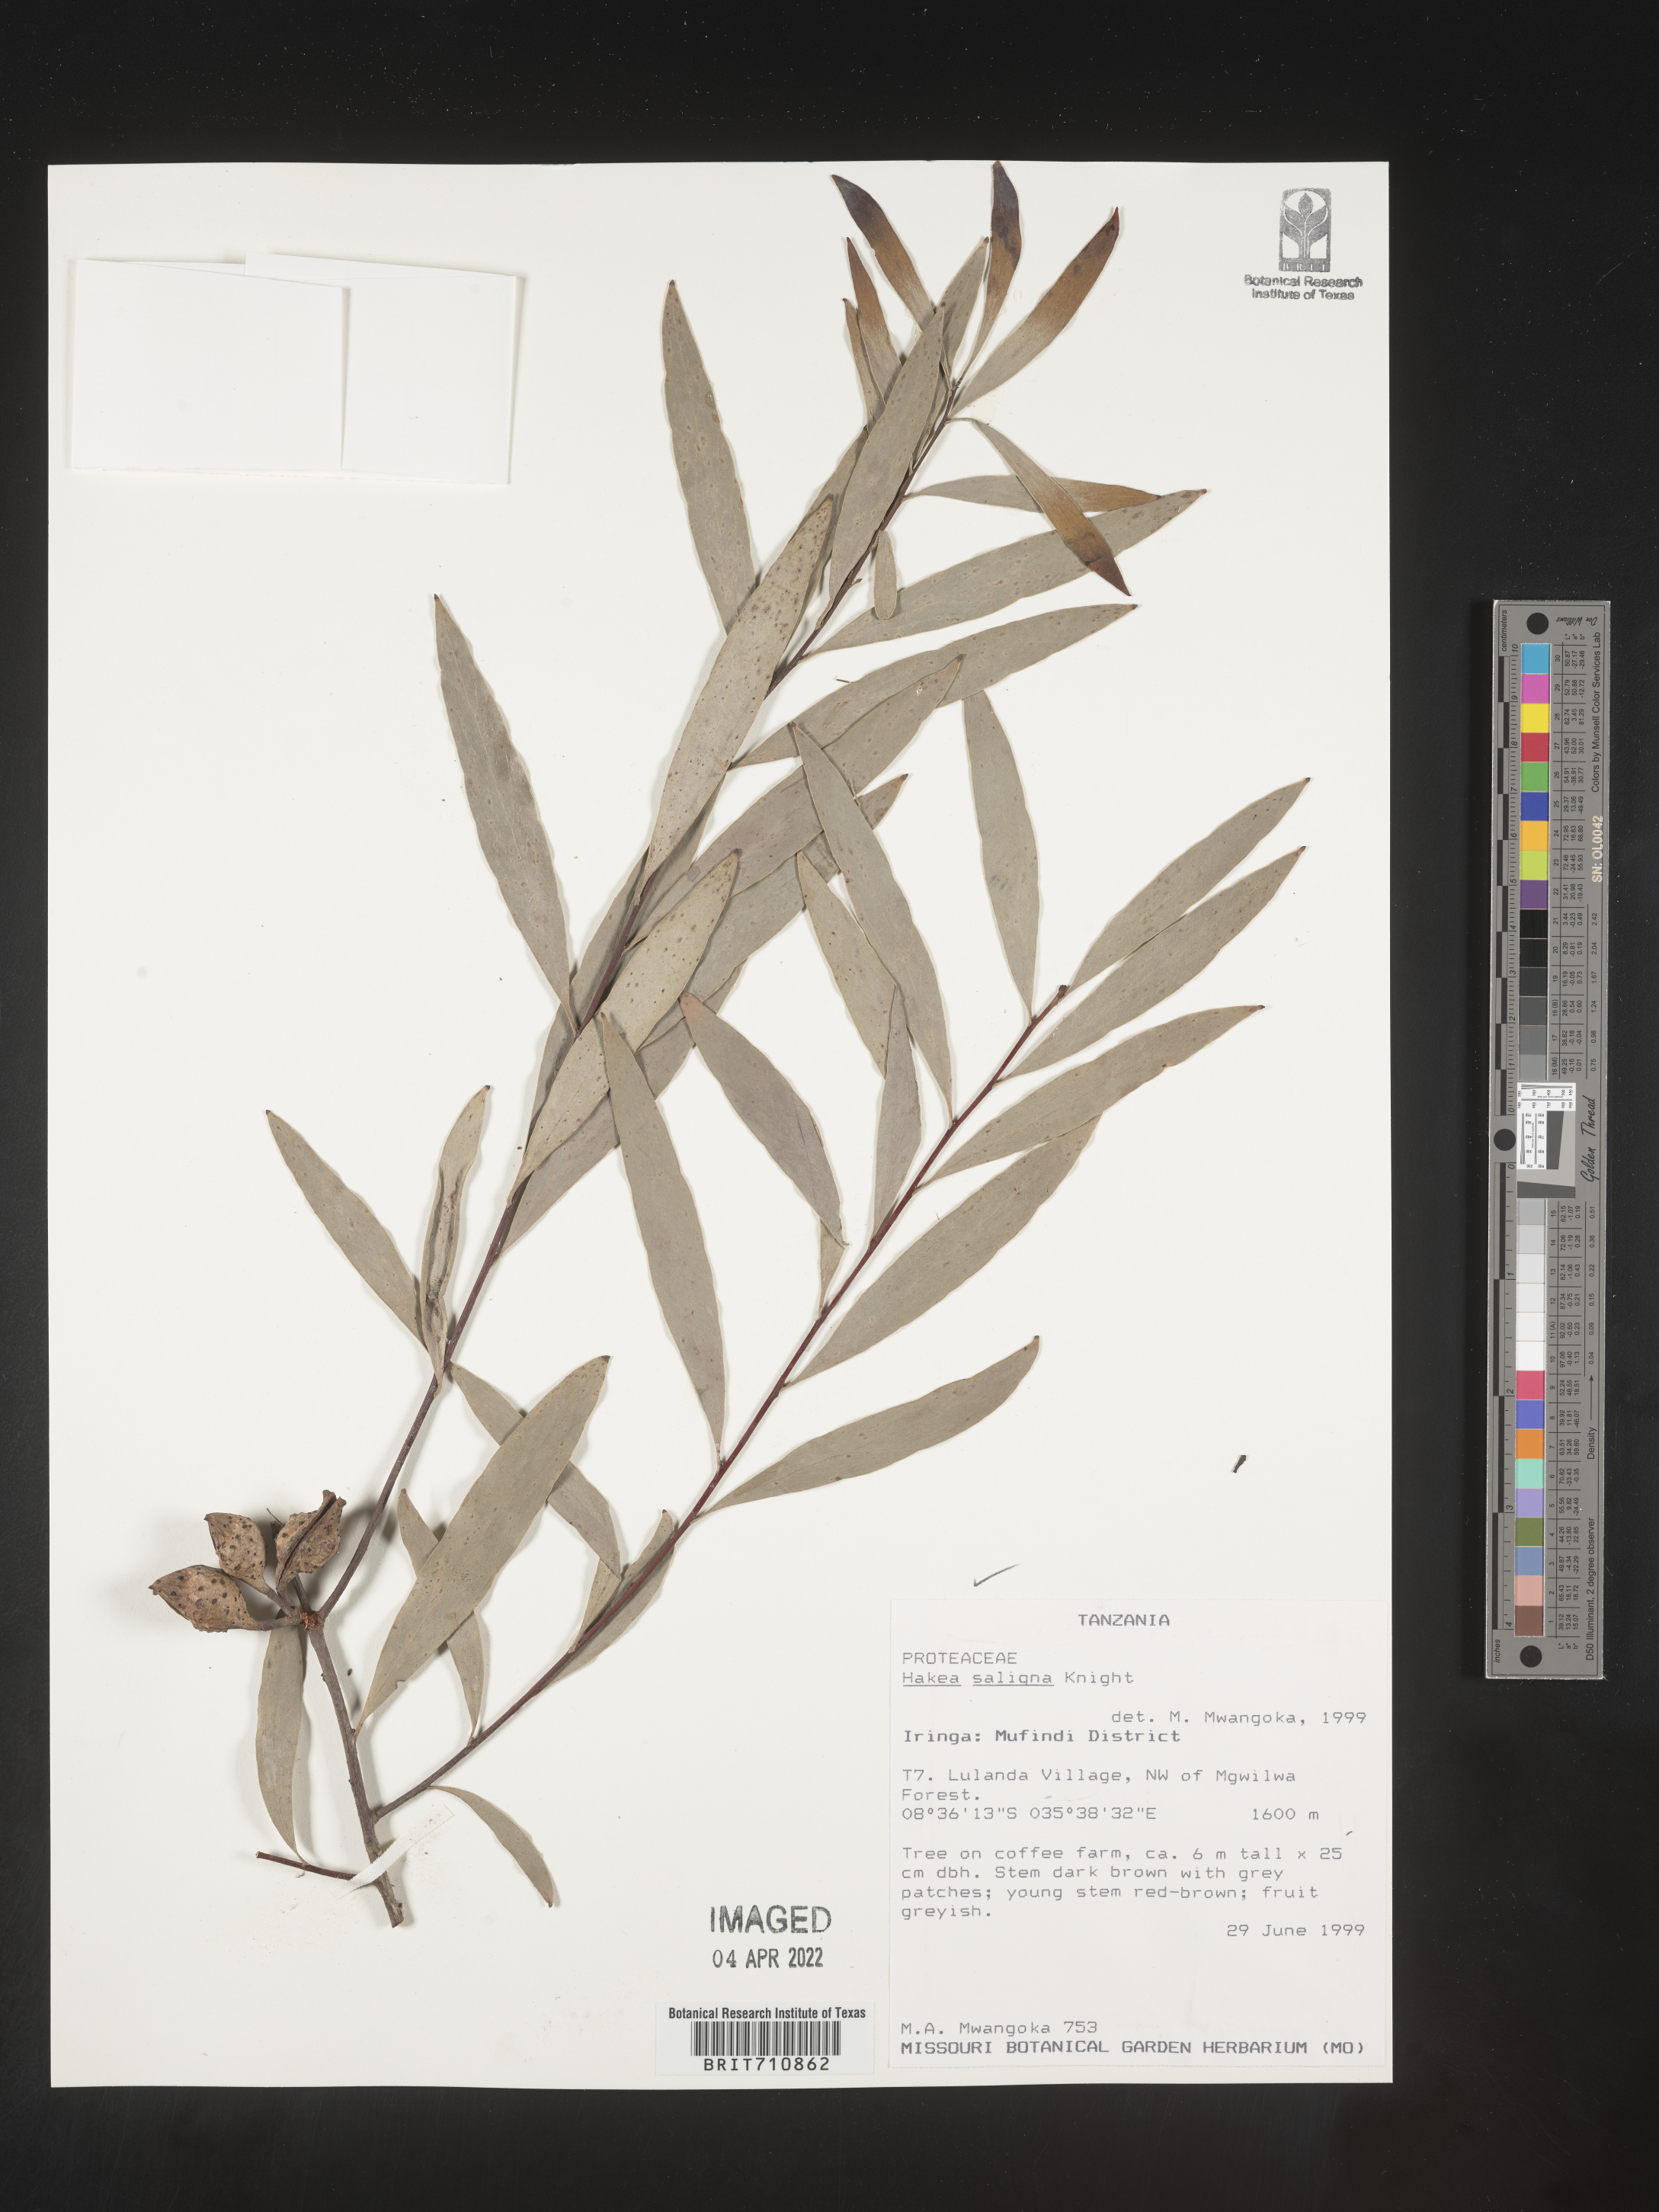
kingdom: Plantae
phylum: Tracheophyta
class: Magnoliopsida
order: Proteales
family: Proteaceae
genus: Hakea
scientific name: Hakea
